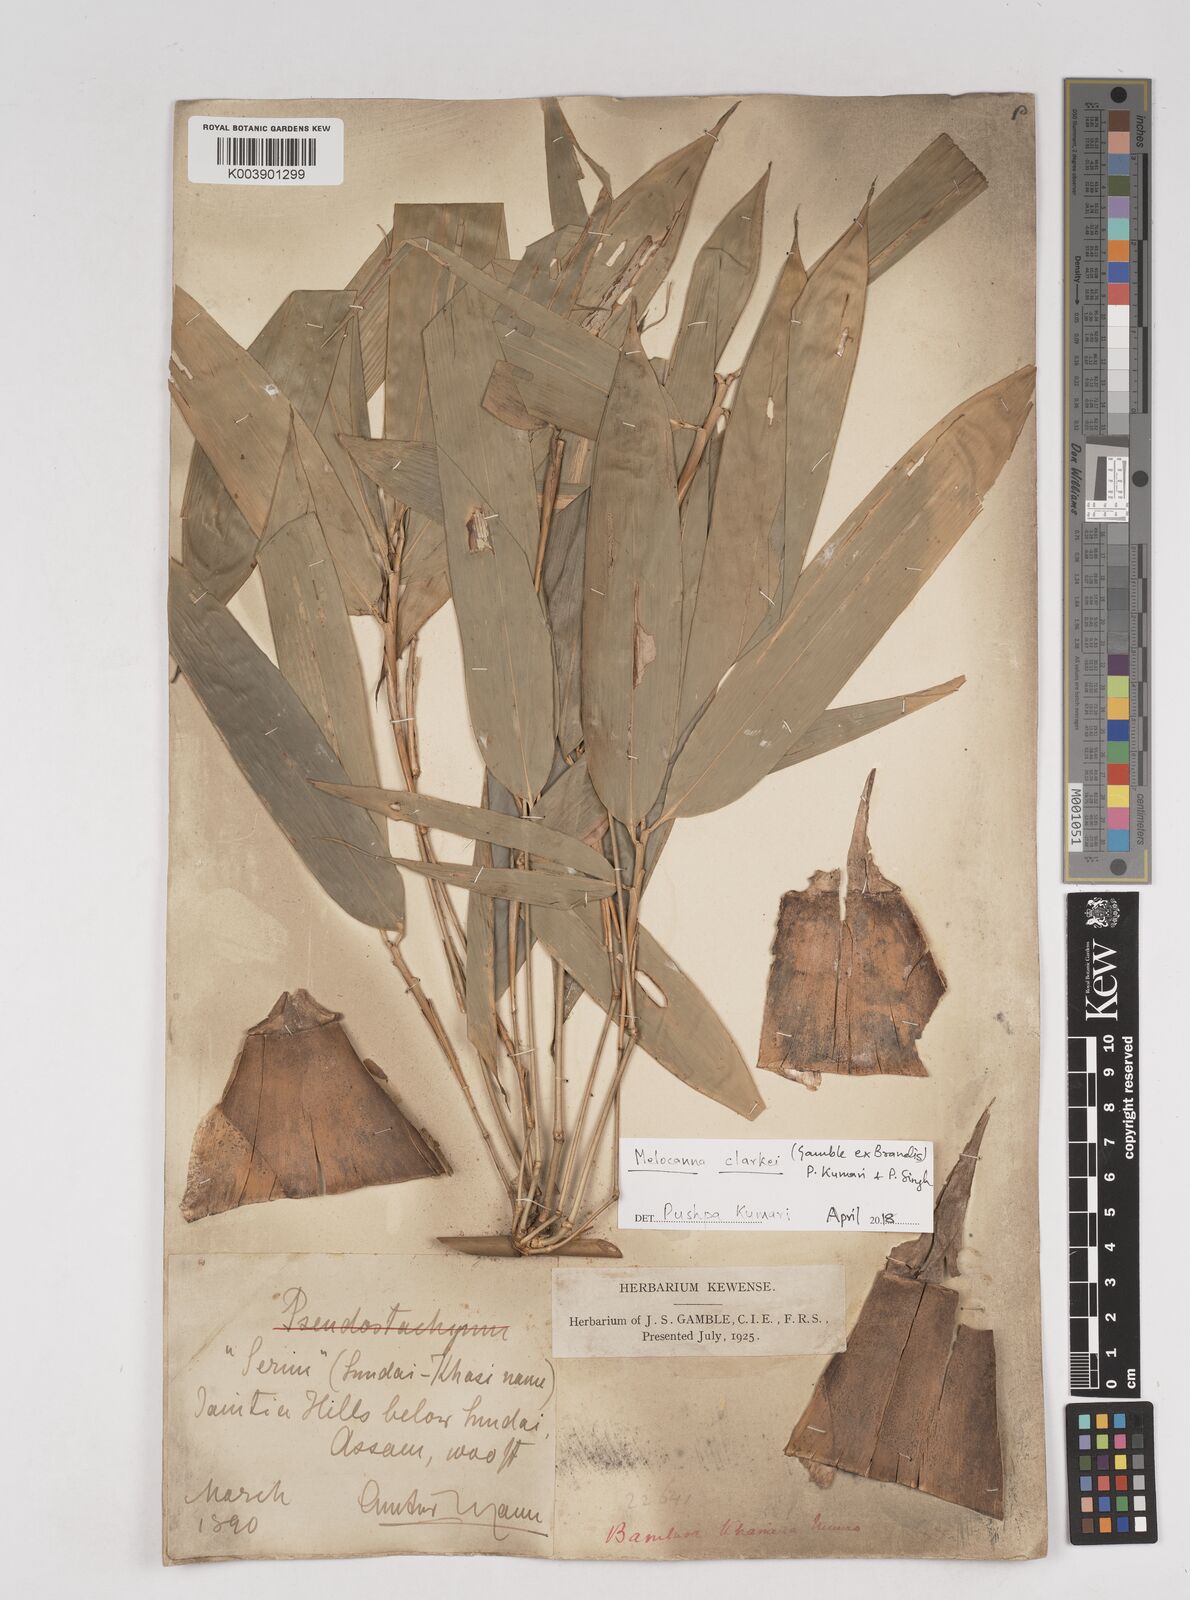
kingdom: Plantae
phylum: Tracheophyta
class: Liliopsida
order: Poales
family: Poaceae
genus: Melocanna
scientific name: Melocanna clarkei
